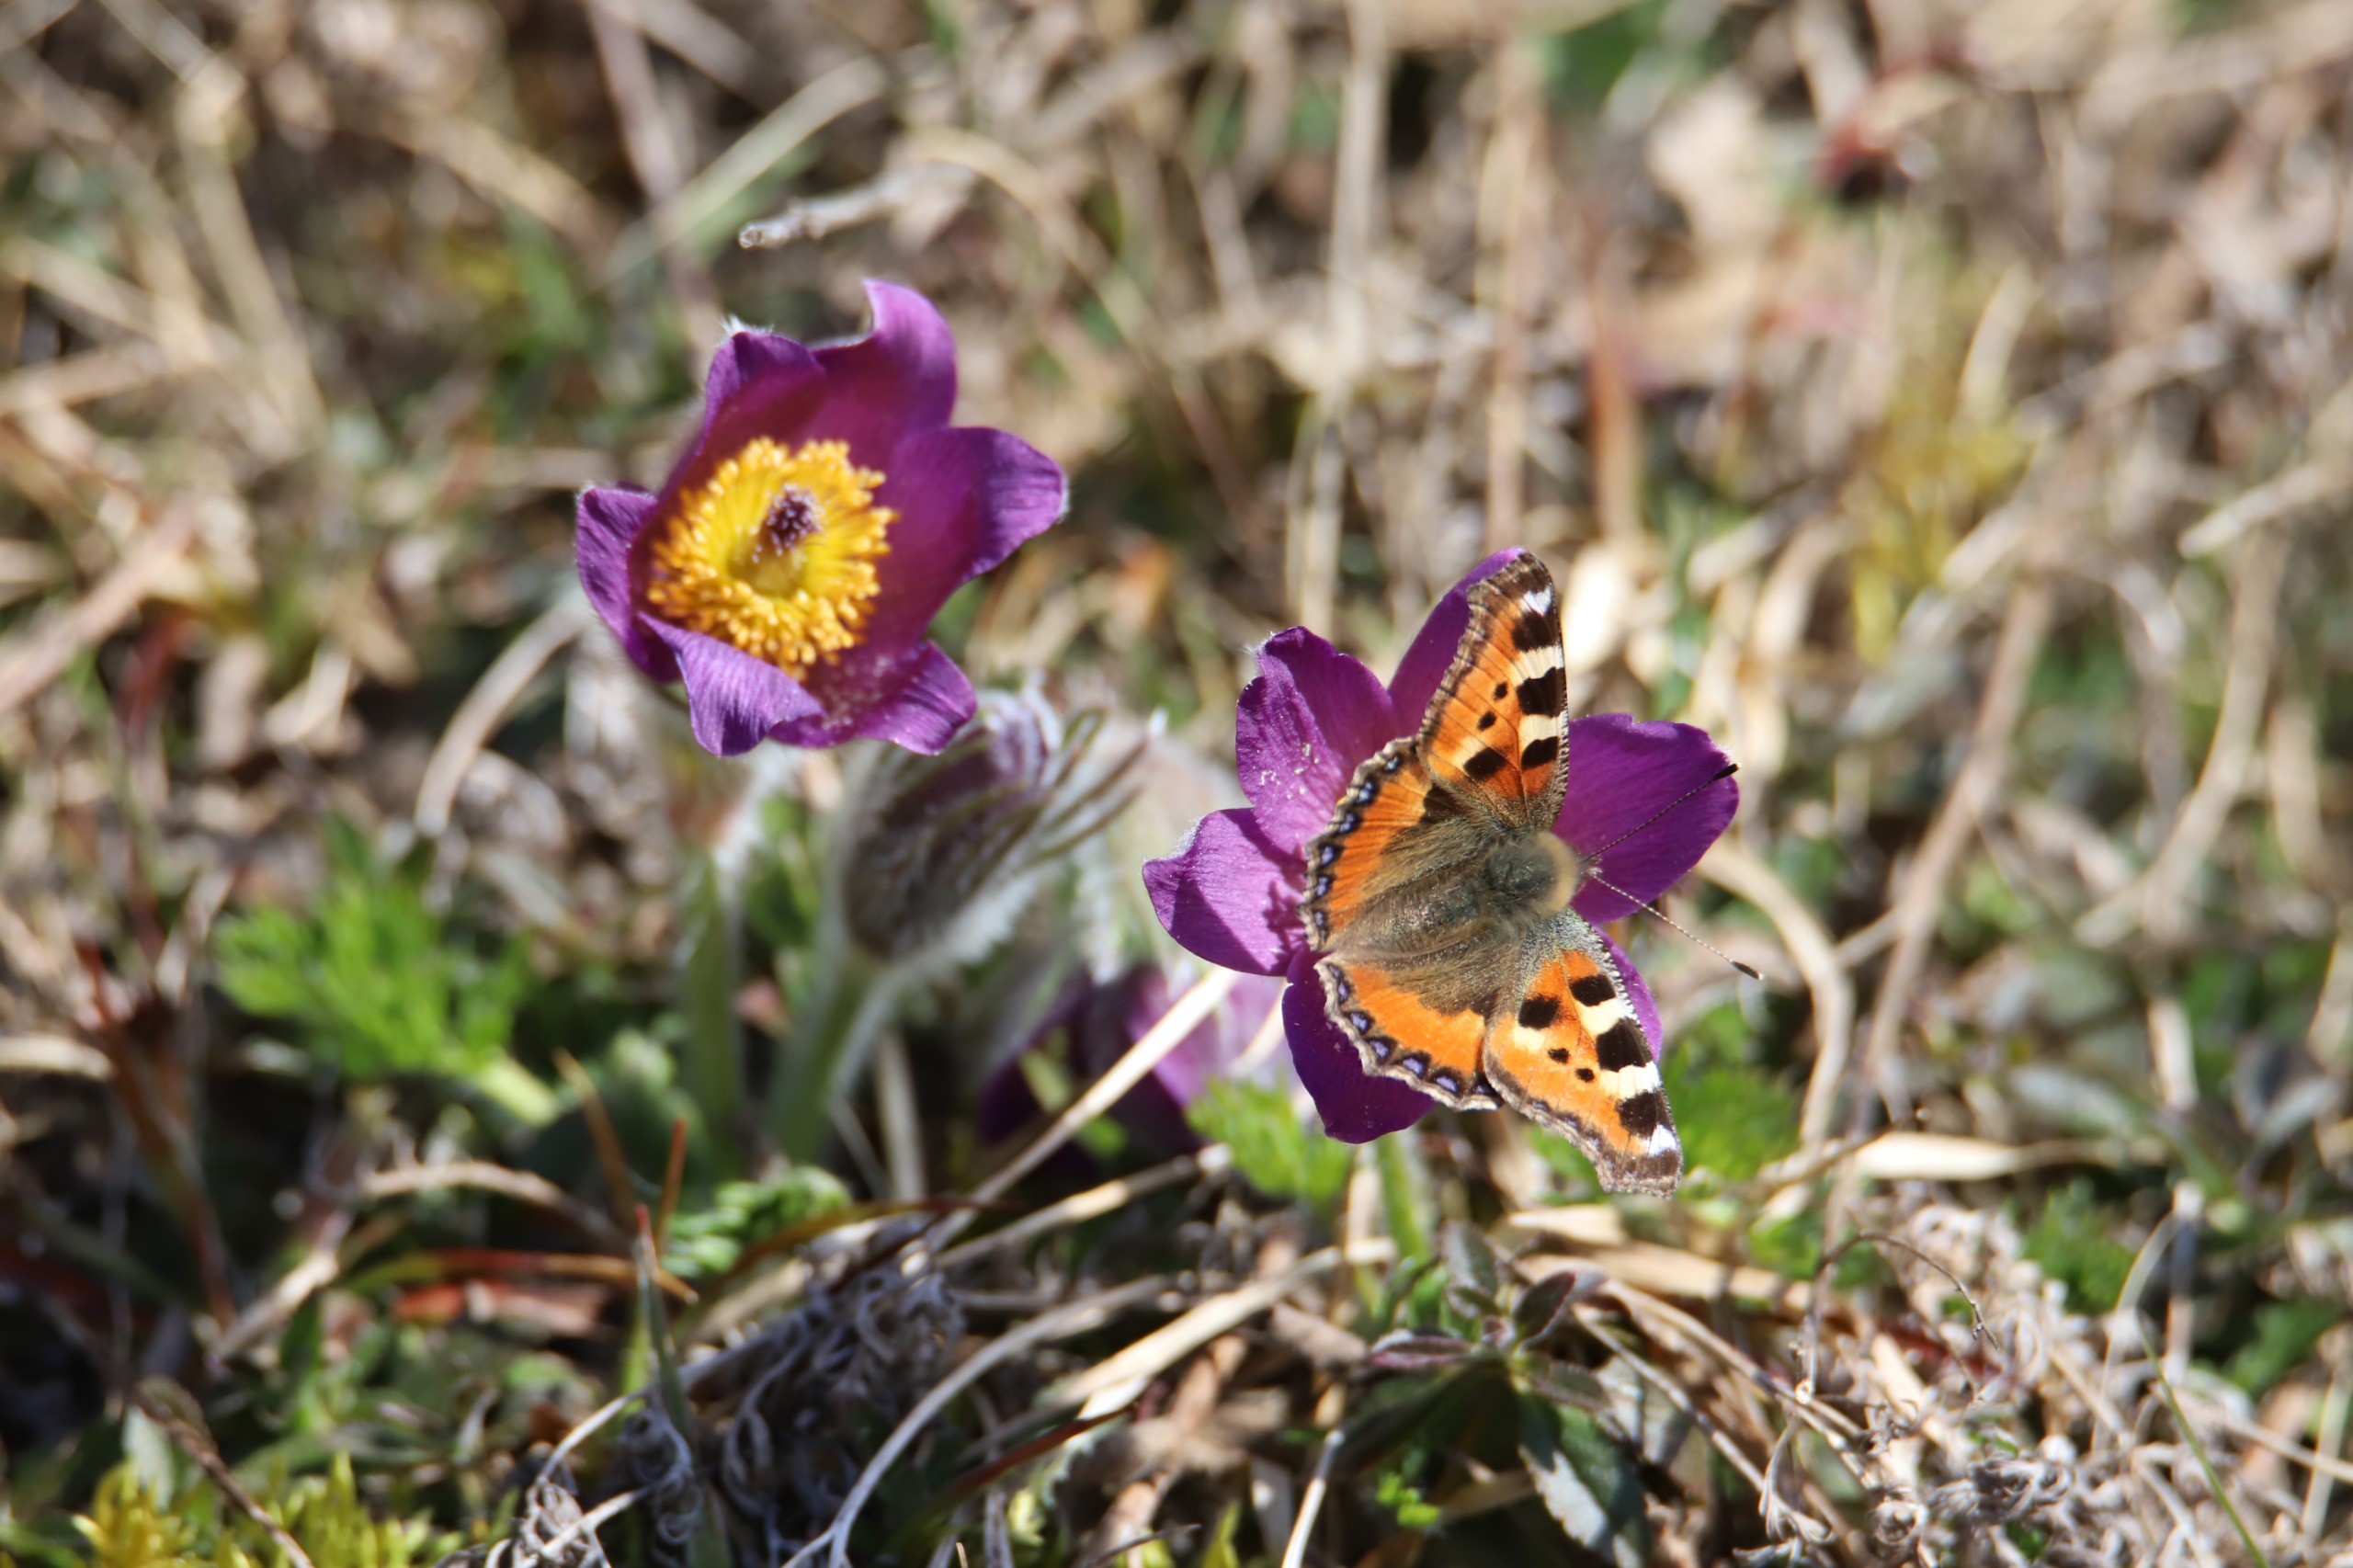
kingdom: Animalia
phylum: Arthropoda
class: Insecta
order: Lepidoptera
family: Nymphalidae
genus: Aglais
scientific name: Aglais urticae
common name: Nældens takvinge
